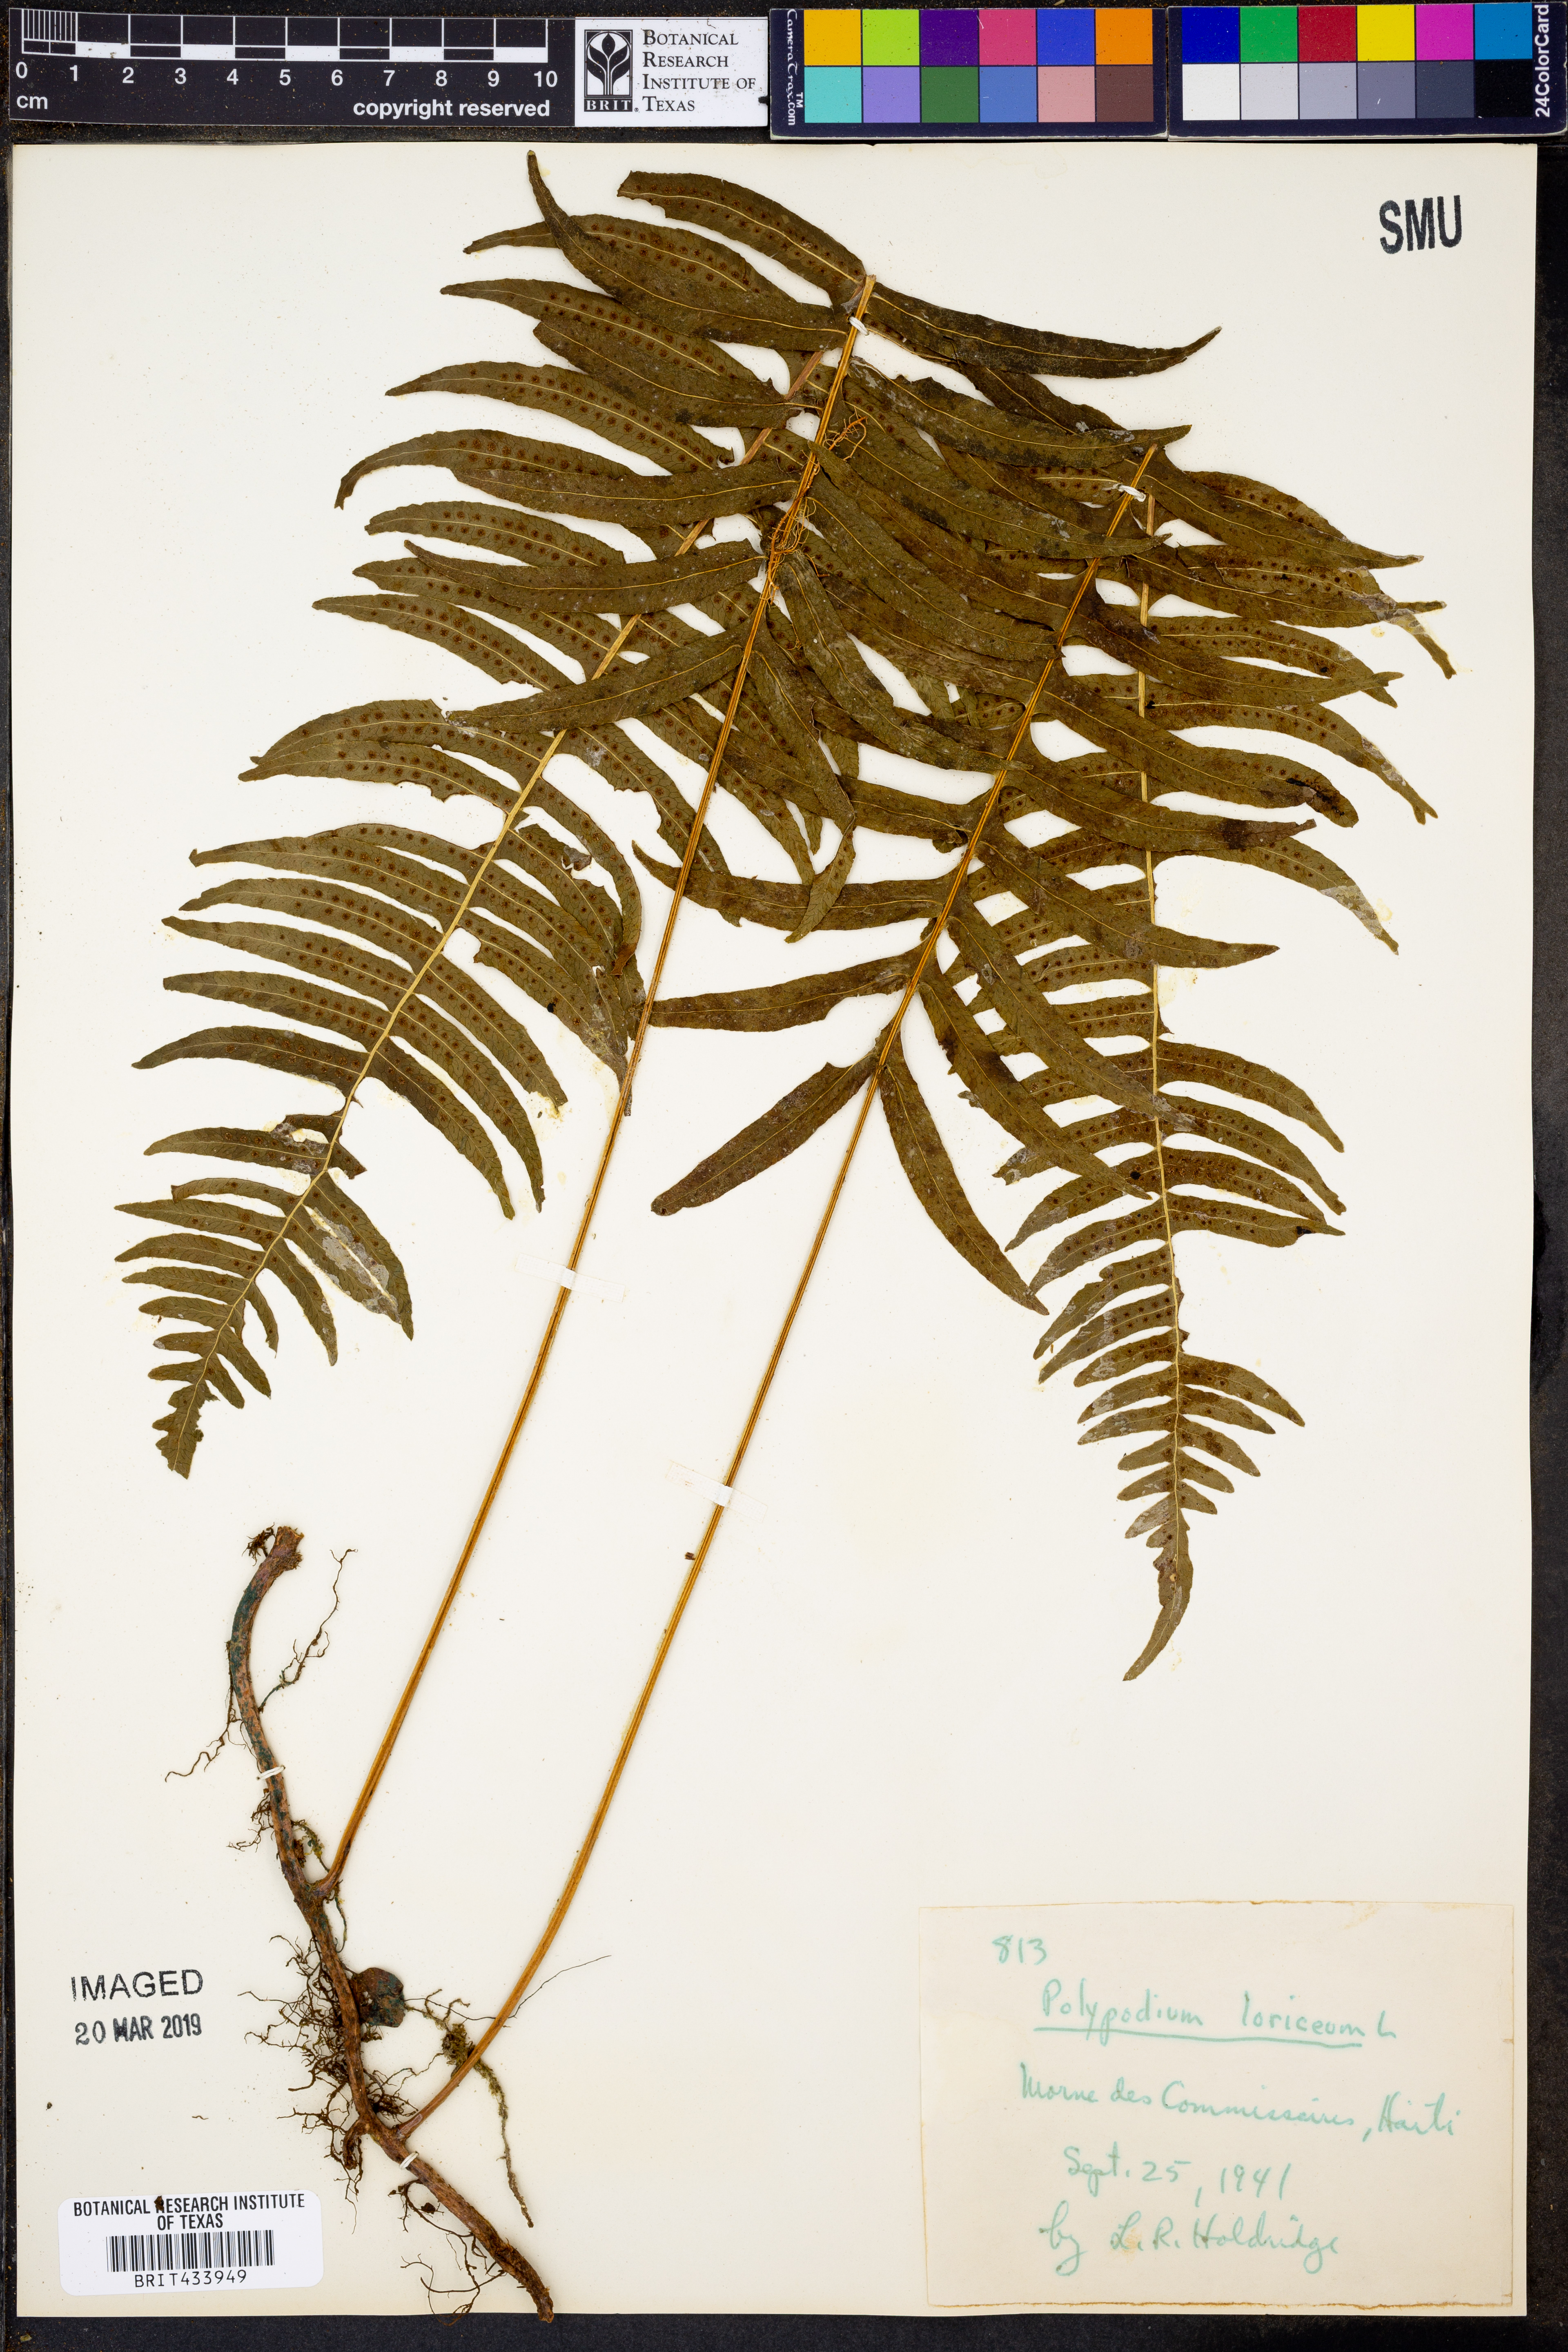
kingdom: Plantae
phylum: Tracheophyta
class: Polypodiopsida
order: Polypodiales
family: Polypodiaceae
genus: Serpocaulon
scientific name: Serpocaulon loriceum
